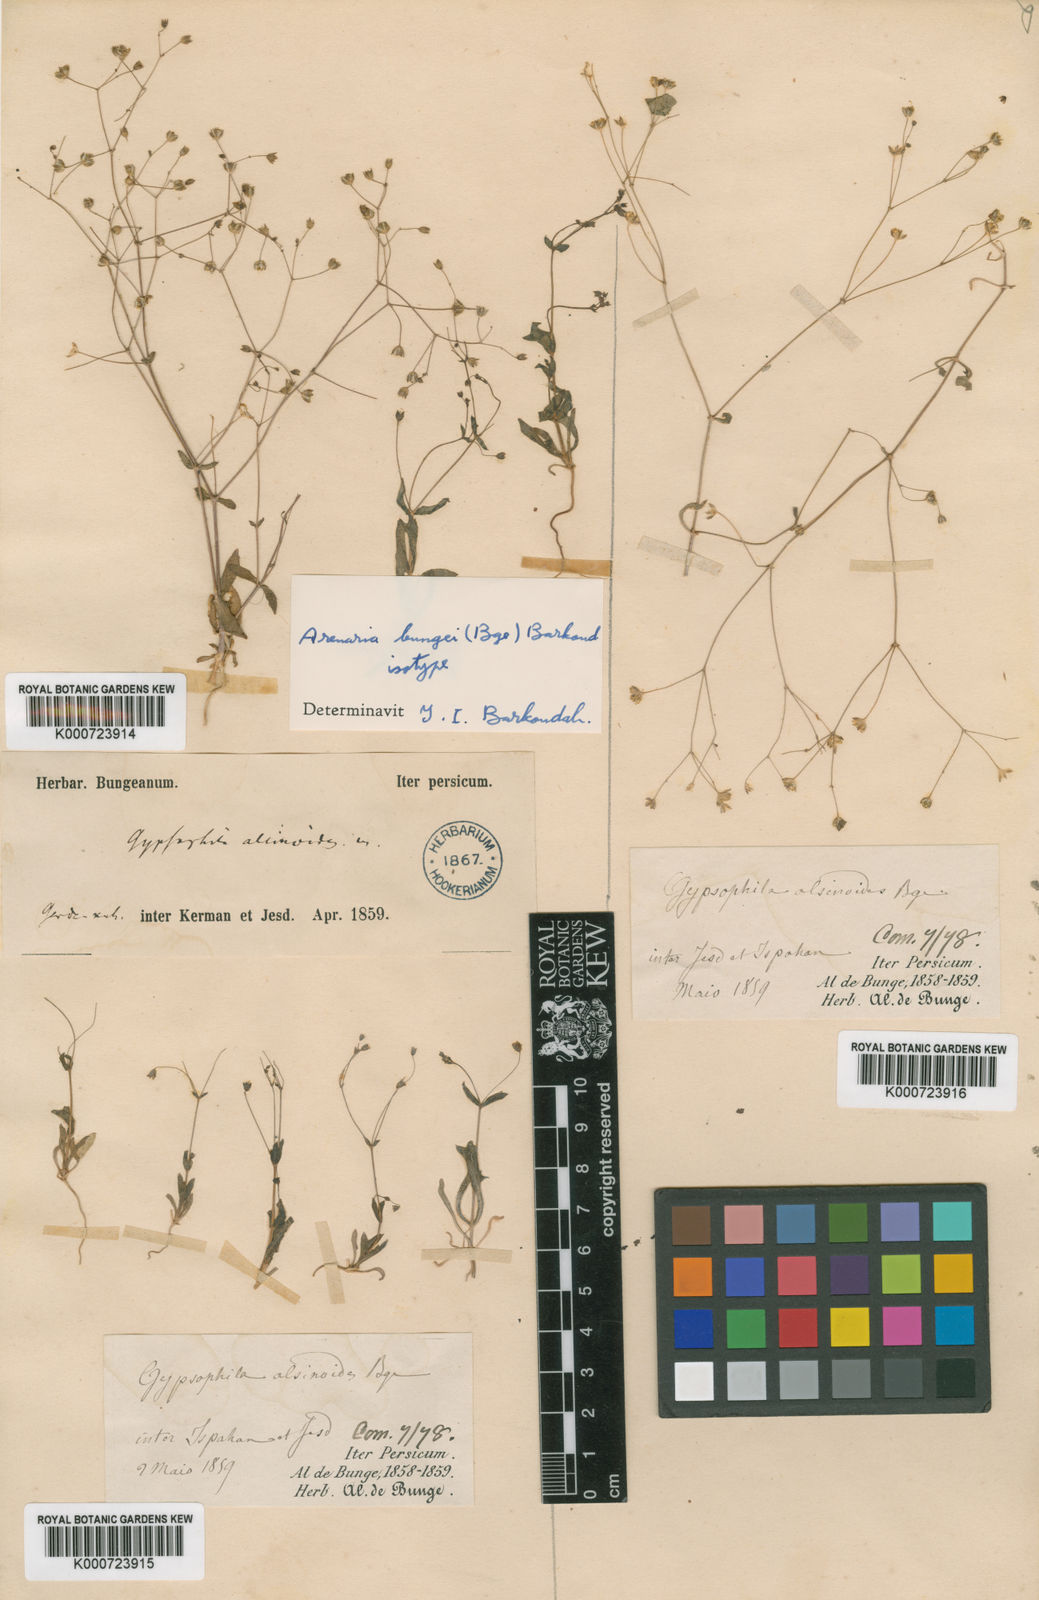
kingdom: Plantae
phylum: Tracheophyta
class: Magnoliopsida
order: Caryophyllales
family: Caryophyllaceae
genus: Gypsophila
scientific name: Gypsophila alsinoides
